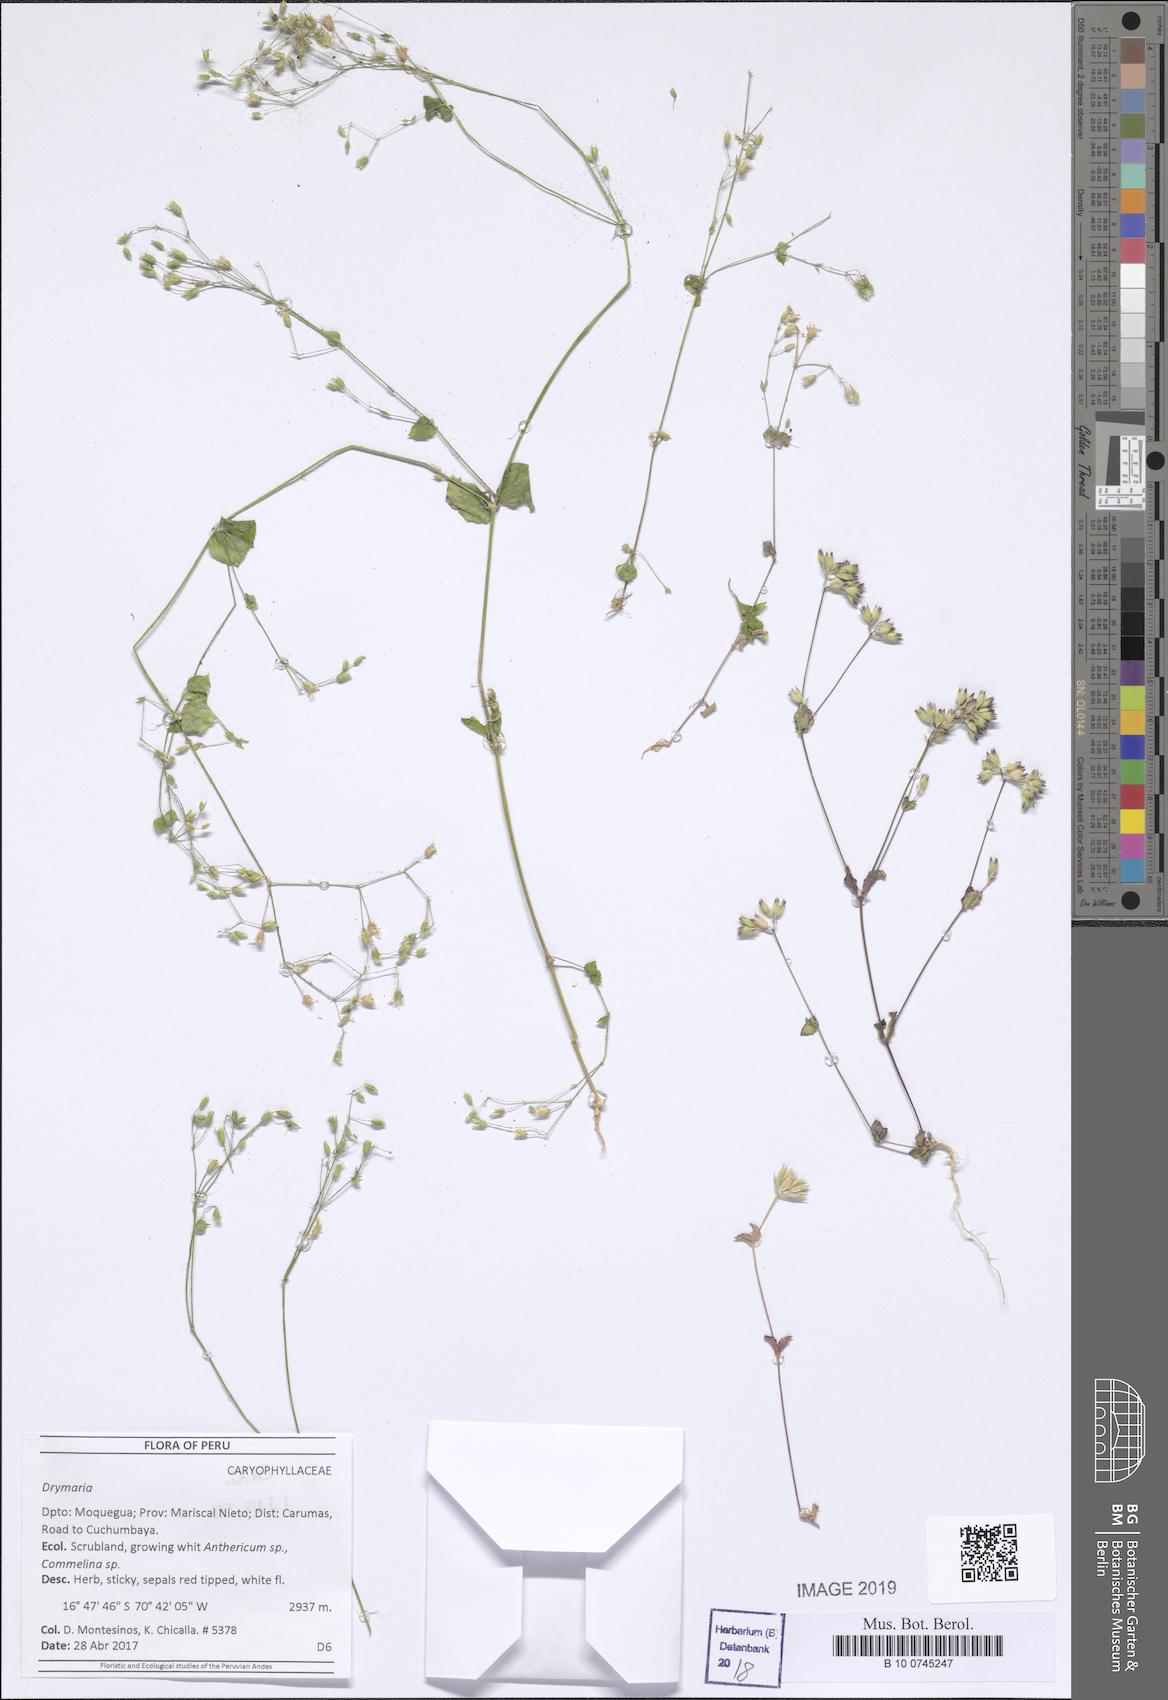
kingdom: Plantae
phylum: Tracheophyta
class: Magnoliopsida
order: Caryophyllales
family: Caryophyllaceae
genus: Drymaria
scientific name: Drymaria
